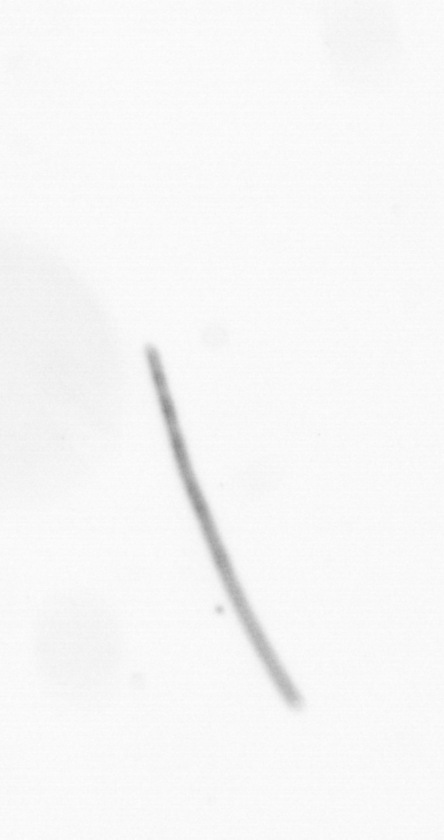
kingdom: Chromista
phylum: Ochrophyta
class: Bacillariophyceae
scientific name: Bacillariophyceae
